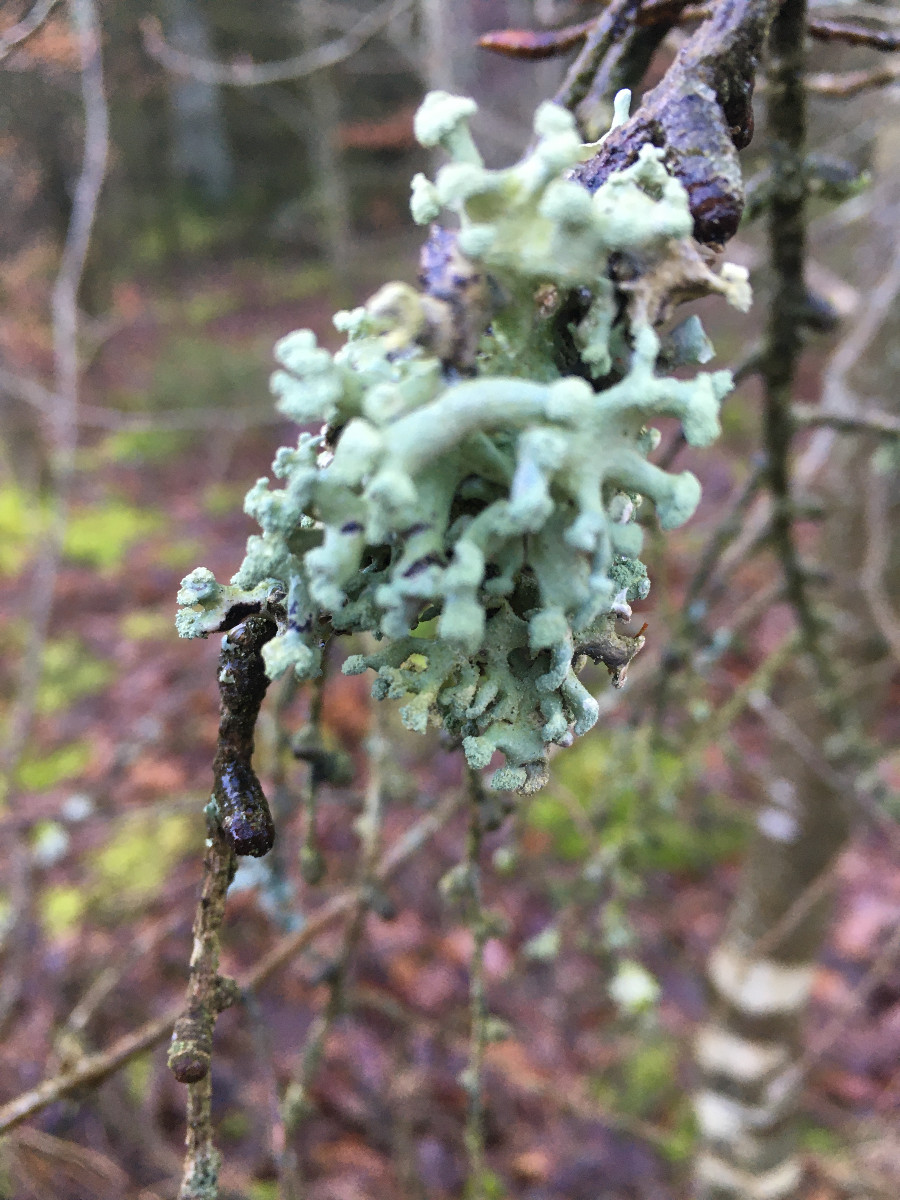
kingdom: Fungi
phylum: Ascomycota
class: Lecanoromycetes
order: Lecanorales
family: Parmeliaceae
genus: Hypogymnia
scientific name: Hypogymnia tubulosa
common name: finger-kvistlav
